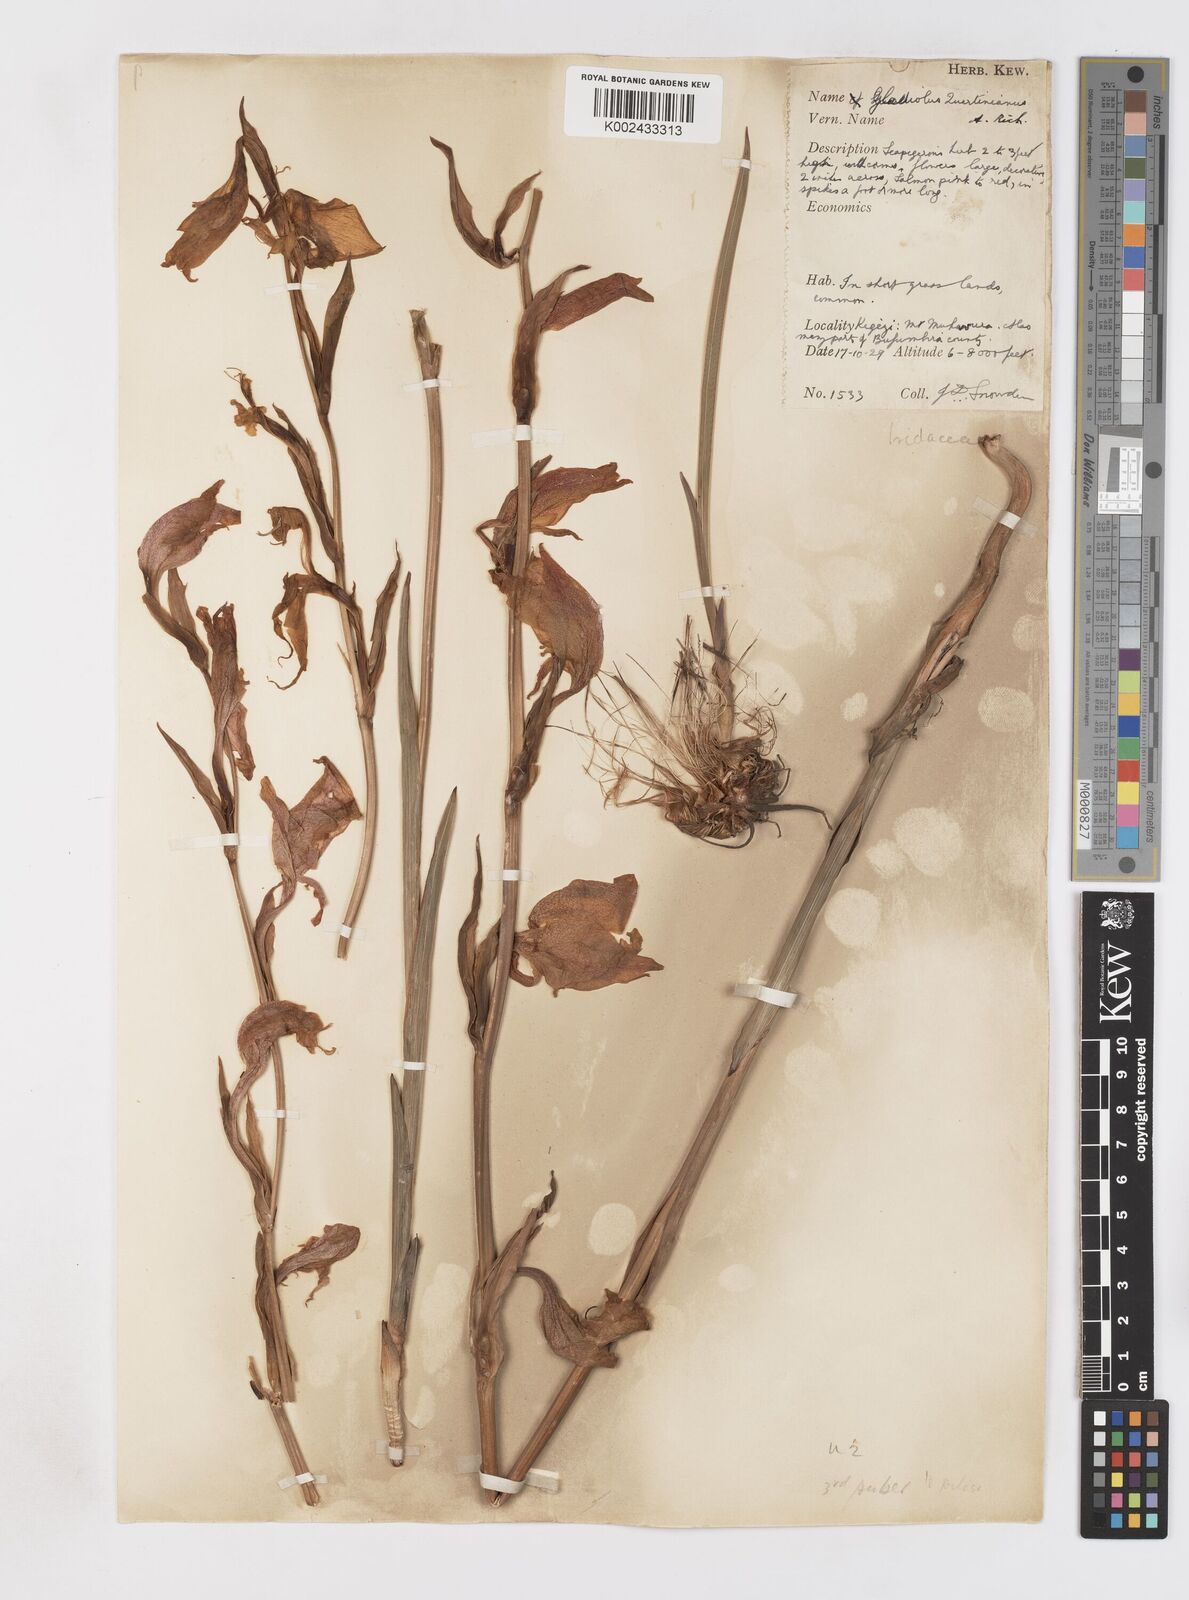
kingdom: Plantae
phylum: Tracheophyta
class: Liliopsida
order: Asparagales
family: Iridaceae
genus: Gladiolus
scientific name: Gladiolus dalenii
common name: Cornflag
